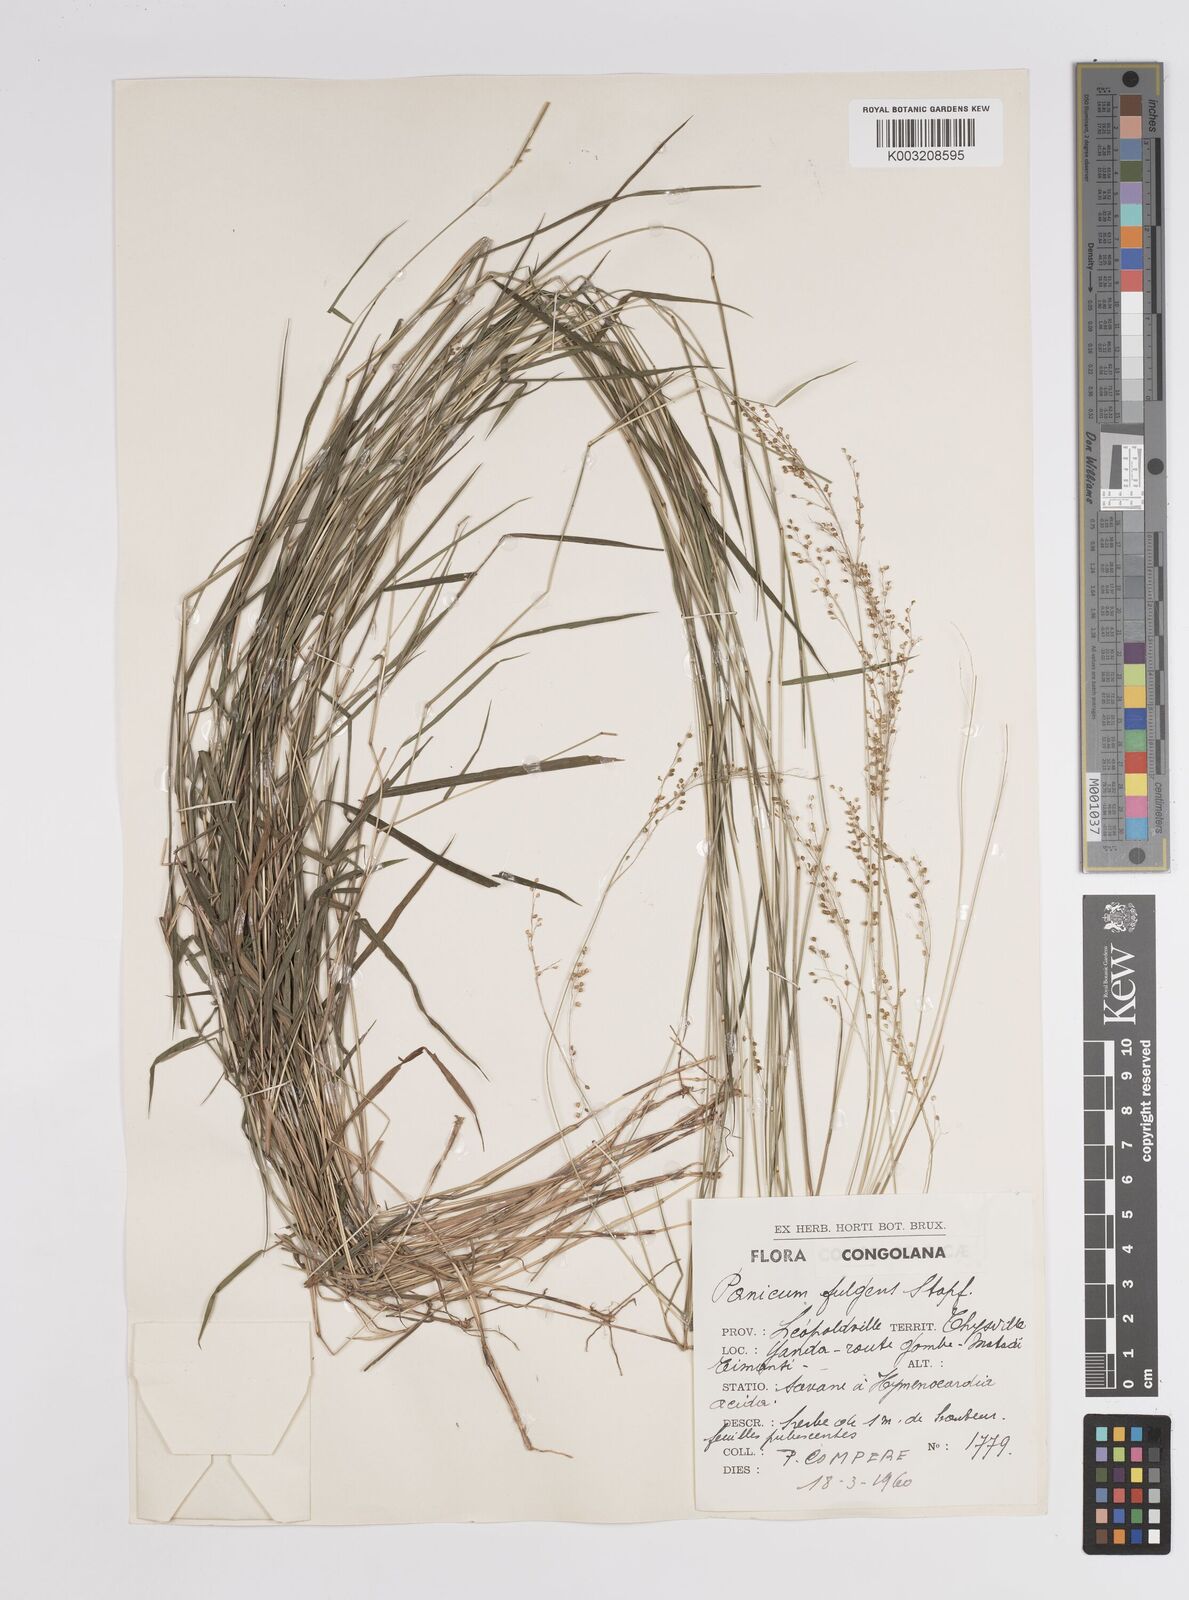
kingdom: Plantae
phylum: Tracheophyta
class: Liliopsida
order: Poales
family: Poaceae
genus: Trichanthecium
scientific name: Trichanthecium nervatum
